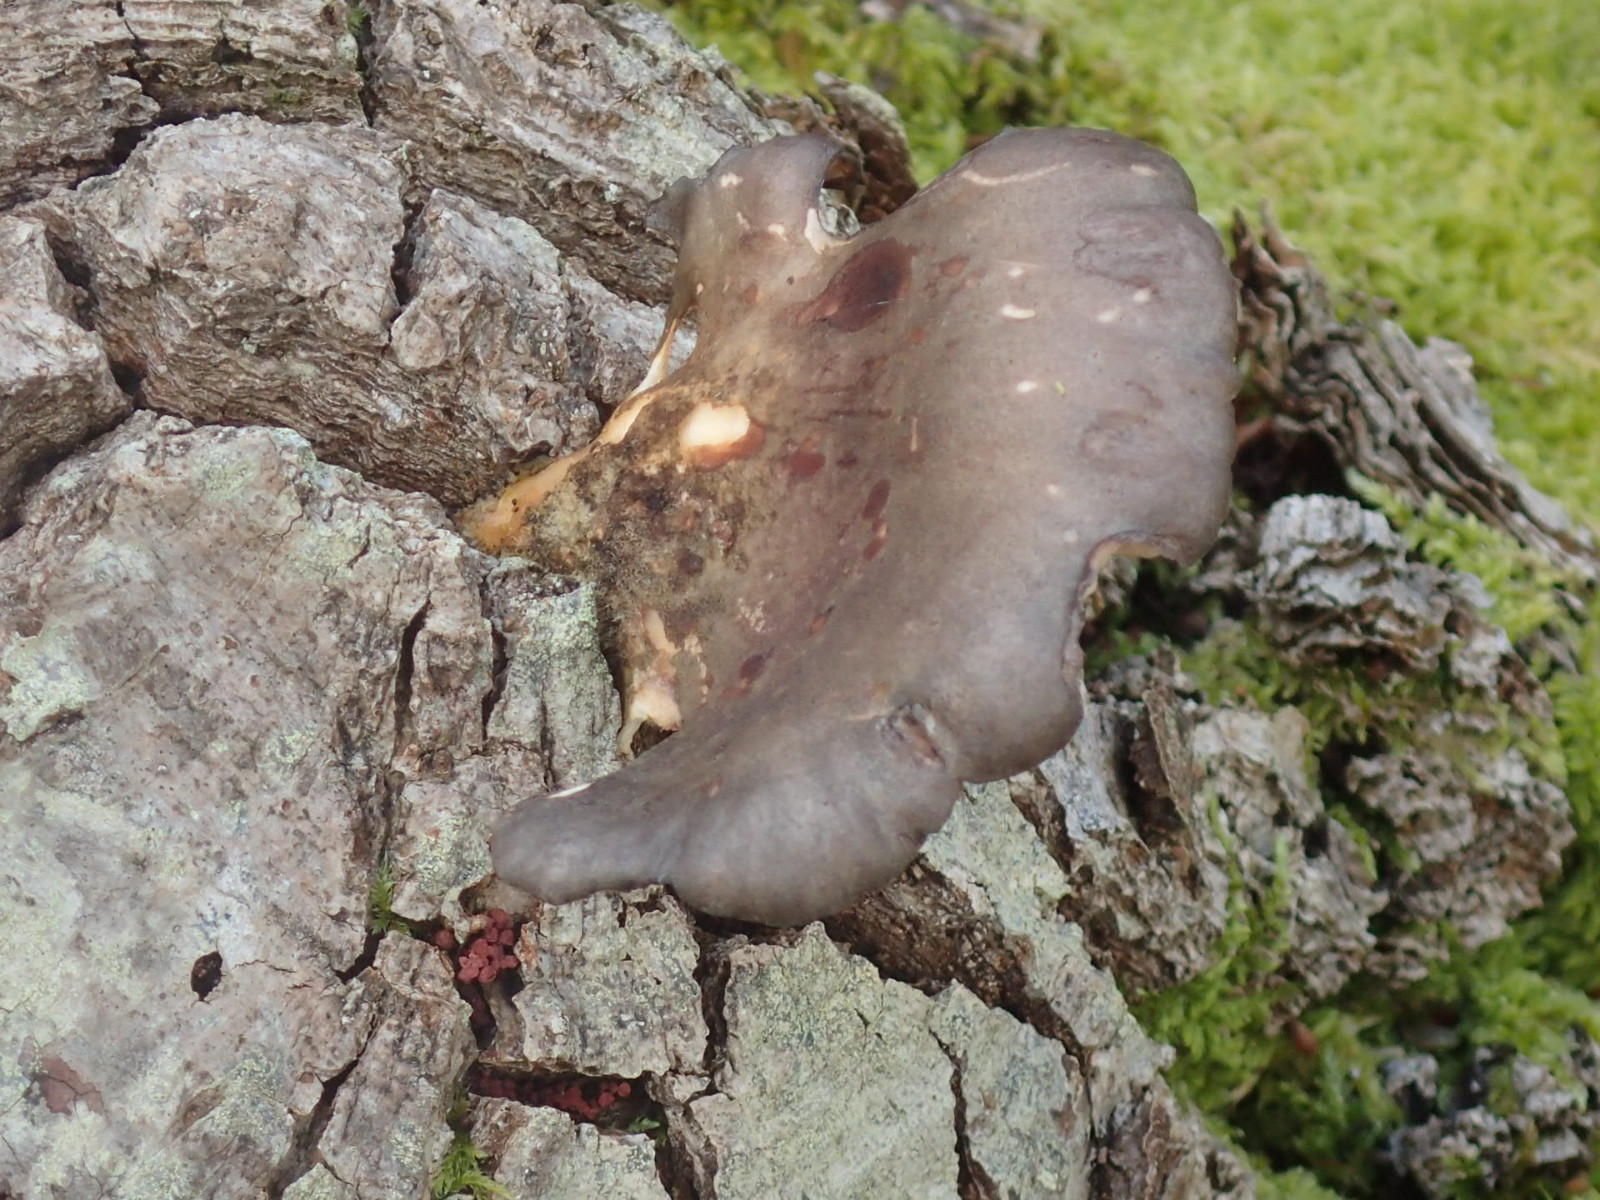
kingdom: Fungi
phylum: Basidiomycota
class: Agaricomycetes
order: Agaricales
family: Pleurotaceae
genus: Pleurotus
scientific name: Pleurotus ostreatus
